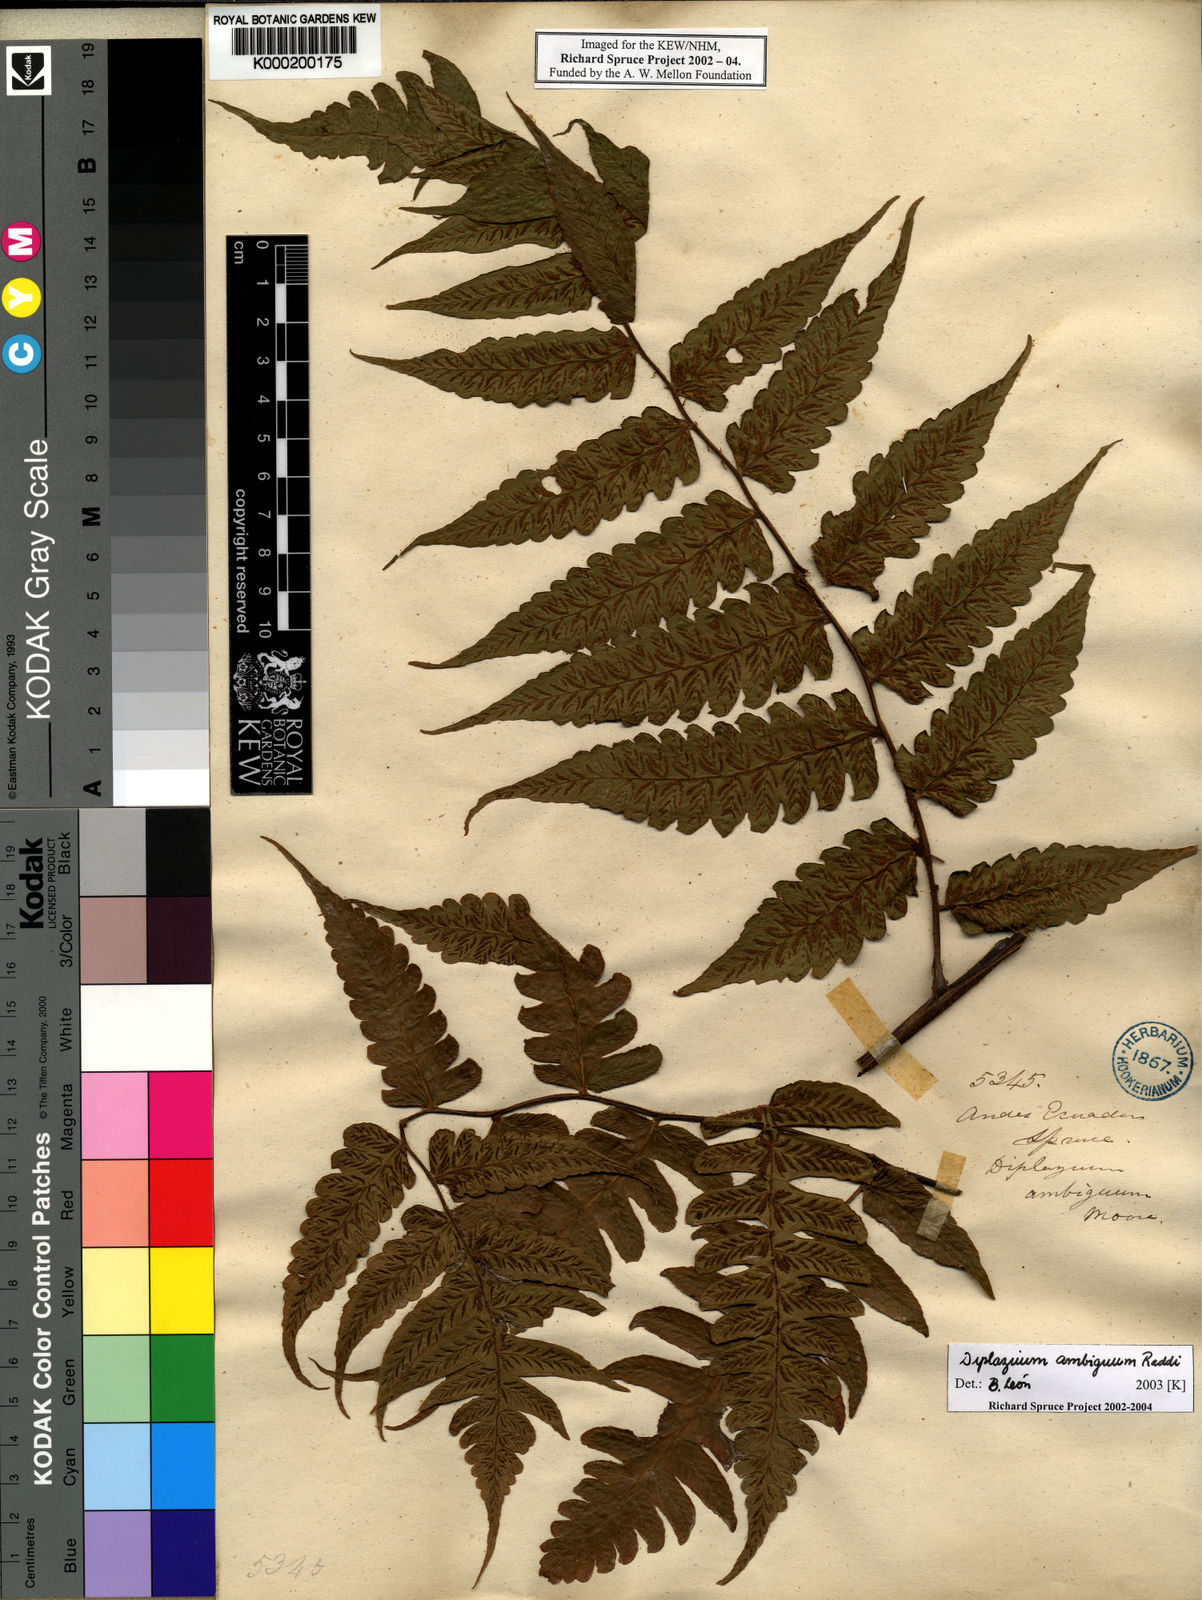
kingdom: Plantae
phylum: Tracheophyta
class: Polypodiopsida
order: Polypodiales
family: Athyriaceae
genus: Diplazium
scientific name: Diplazium
